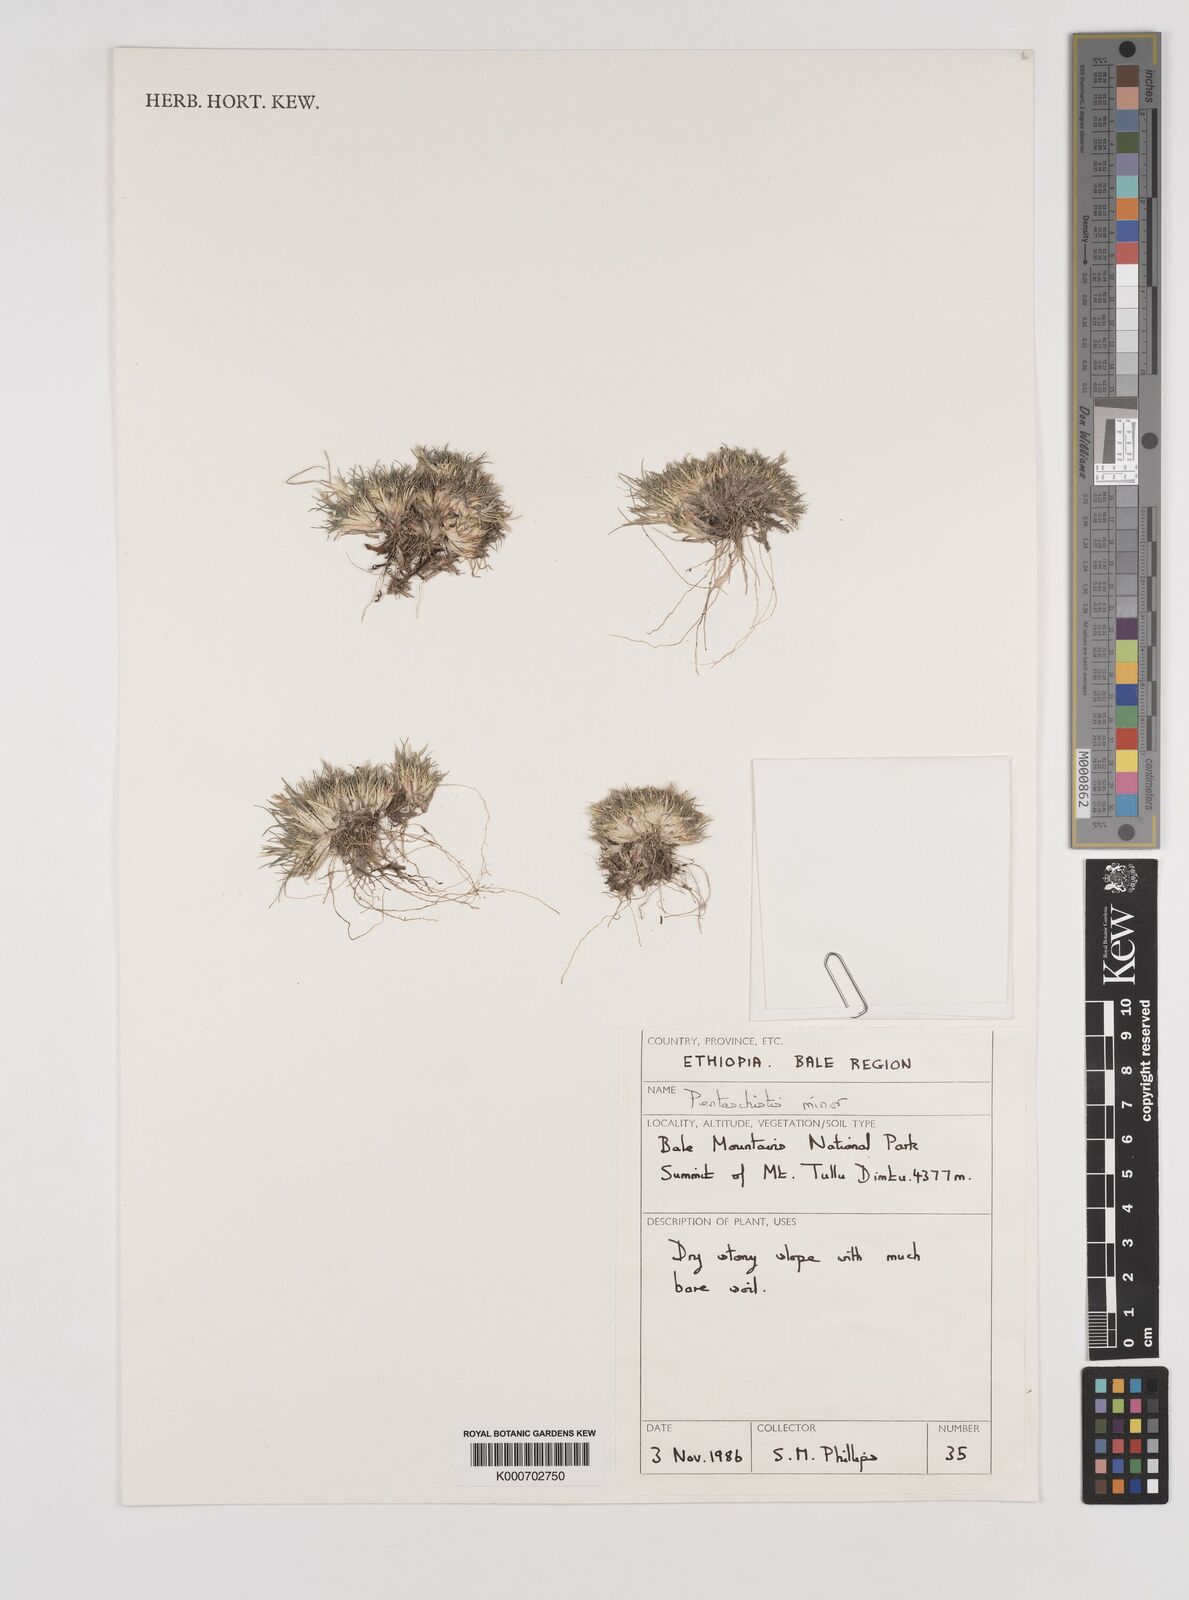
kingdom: Plantae
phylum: Tracheophyta
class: Liliopsida
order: Poales
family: Poaceae
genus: Pentameris
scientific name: Pentameris minor
